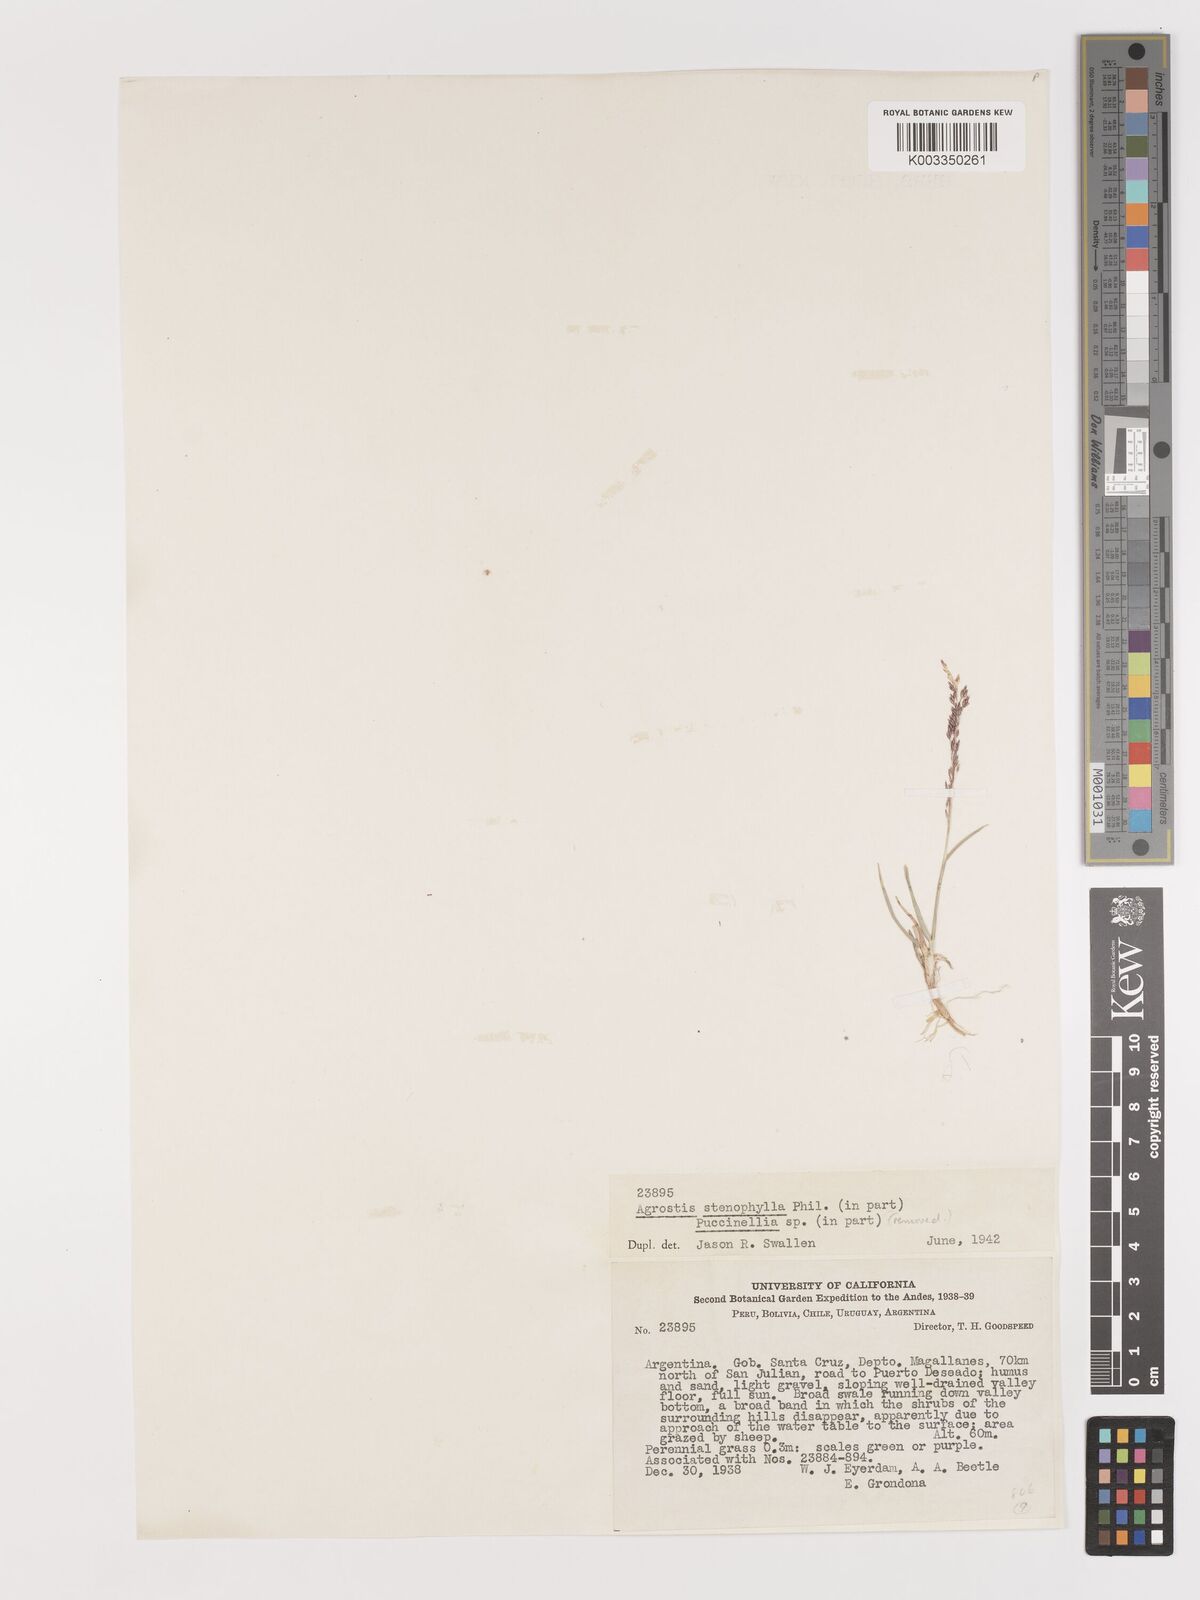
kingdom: Plantae
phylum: Tracheophyta
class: Liliopsida
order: Poales
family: Poaceae
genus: Agrostis
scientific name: Agrostis imberbis
